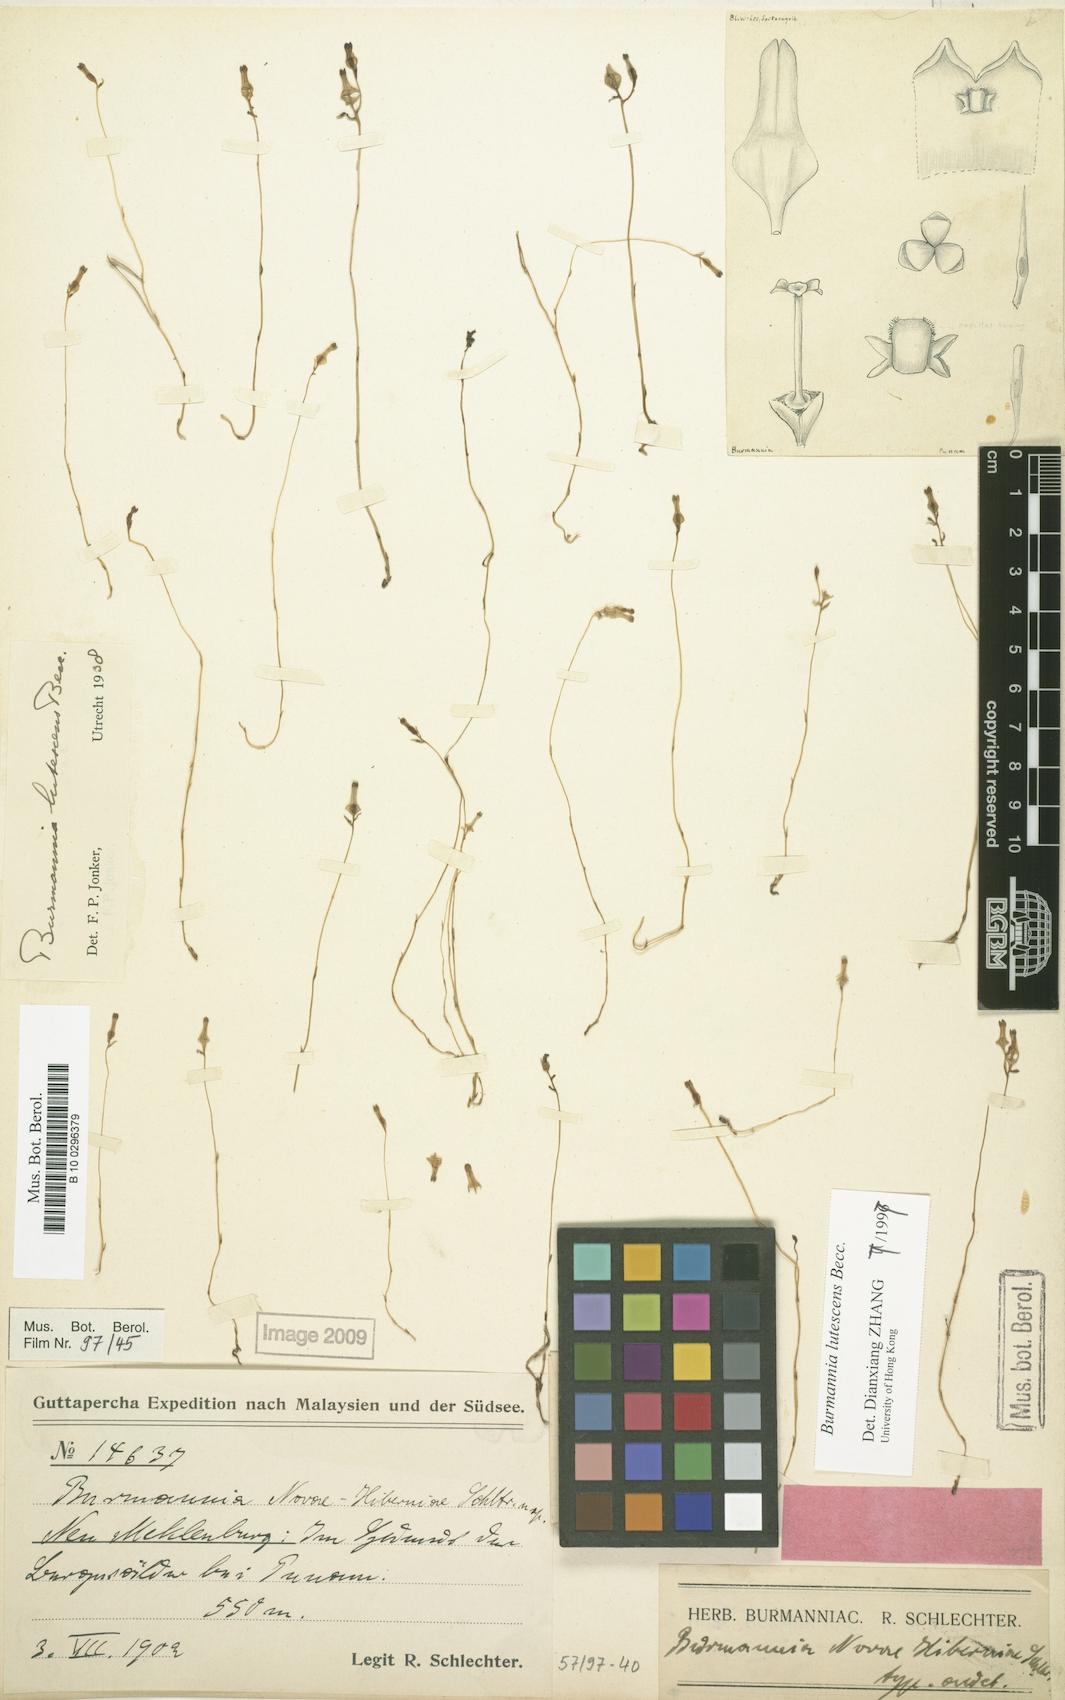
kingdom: Plantae
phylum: Tracheophyta
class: Liliopsida
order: Dioscoreales
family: Burmanniaceae
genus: Burmannia
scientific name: Burmannia lutescens
